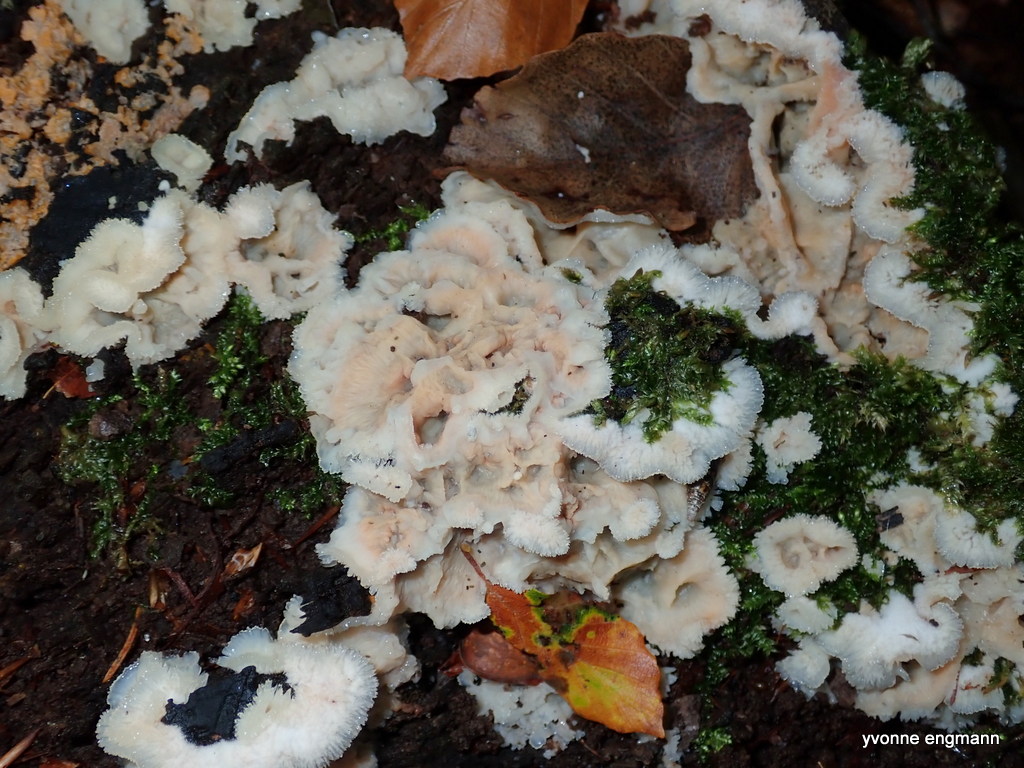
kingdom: Fungi
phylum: Basidiomycota
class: Agaricomycetes
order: Polyporales
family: Meruliaceae
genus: Phlebia
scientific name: Phlebia tremellosa
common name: bævrende åresvamp
